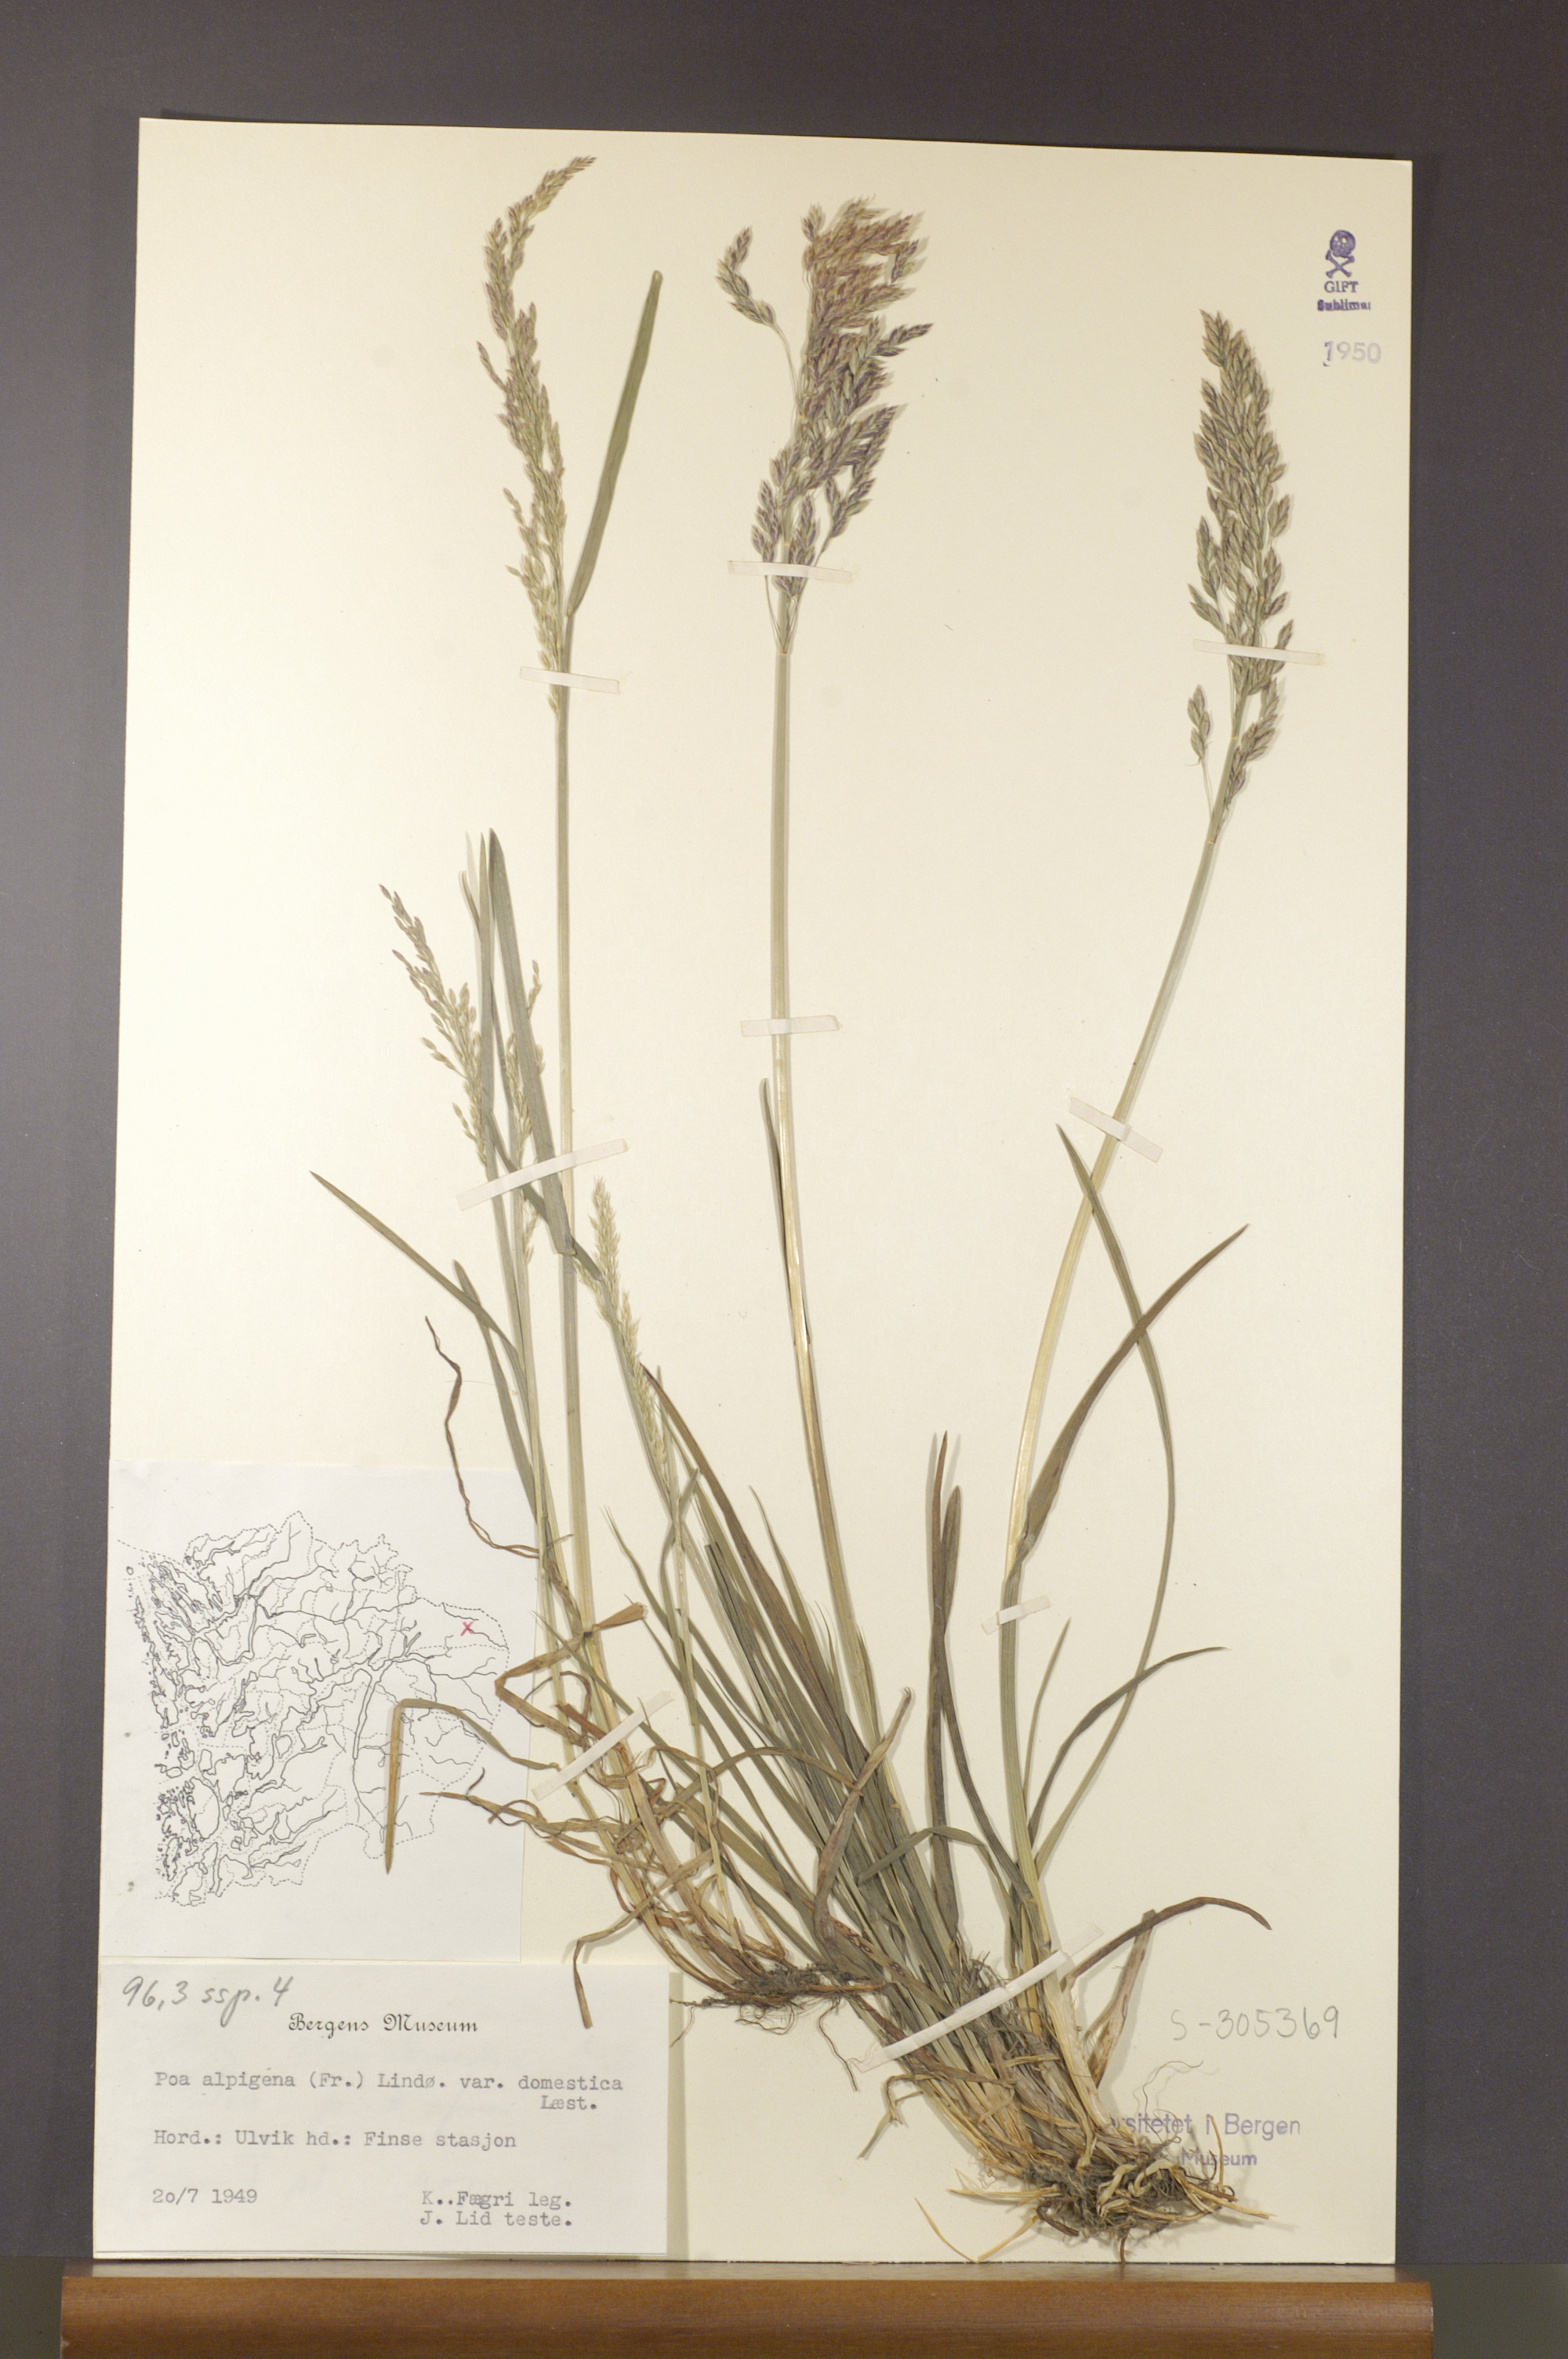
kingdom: Plantae
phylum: Tracheophyta
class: Liliopsida
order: Poales
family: Poaceae
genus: Poa
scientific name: Poa pratensis
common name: Kentucky bluegrass
